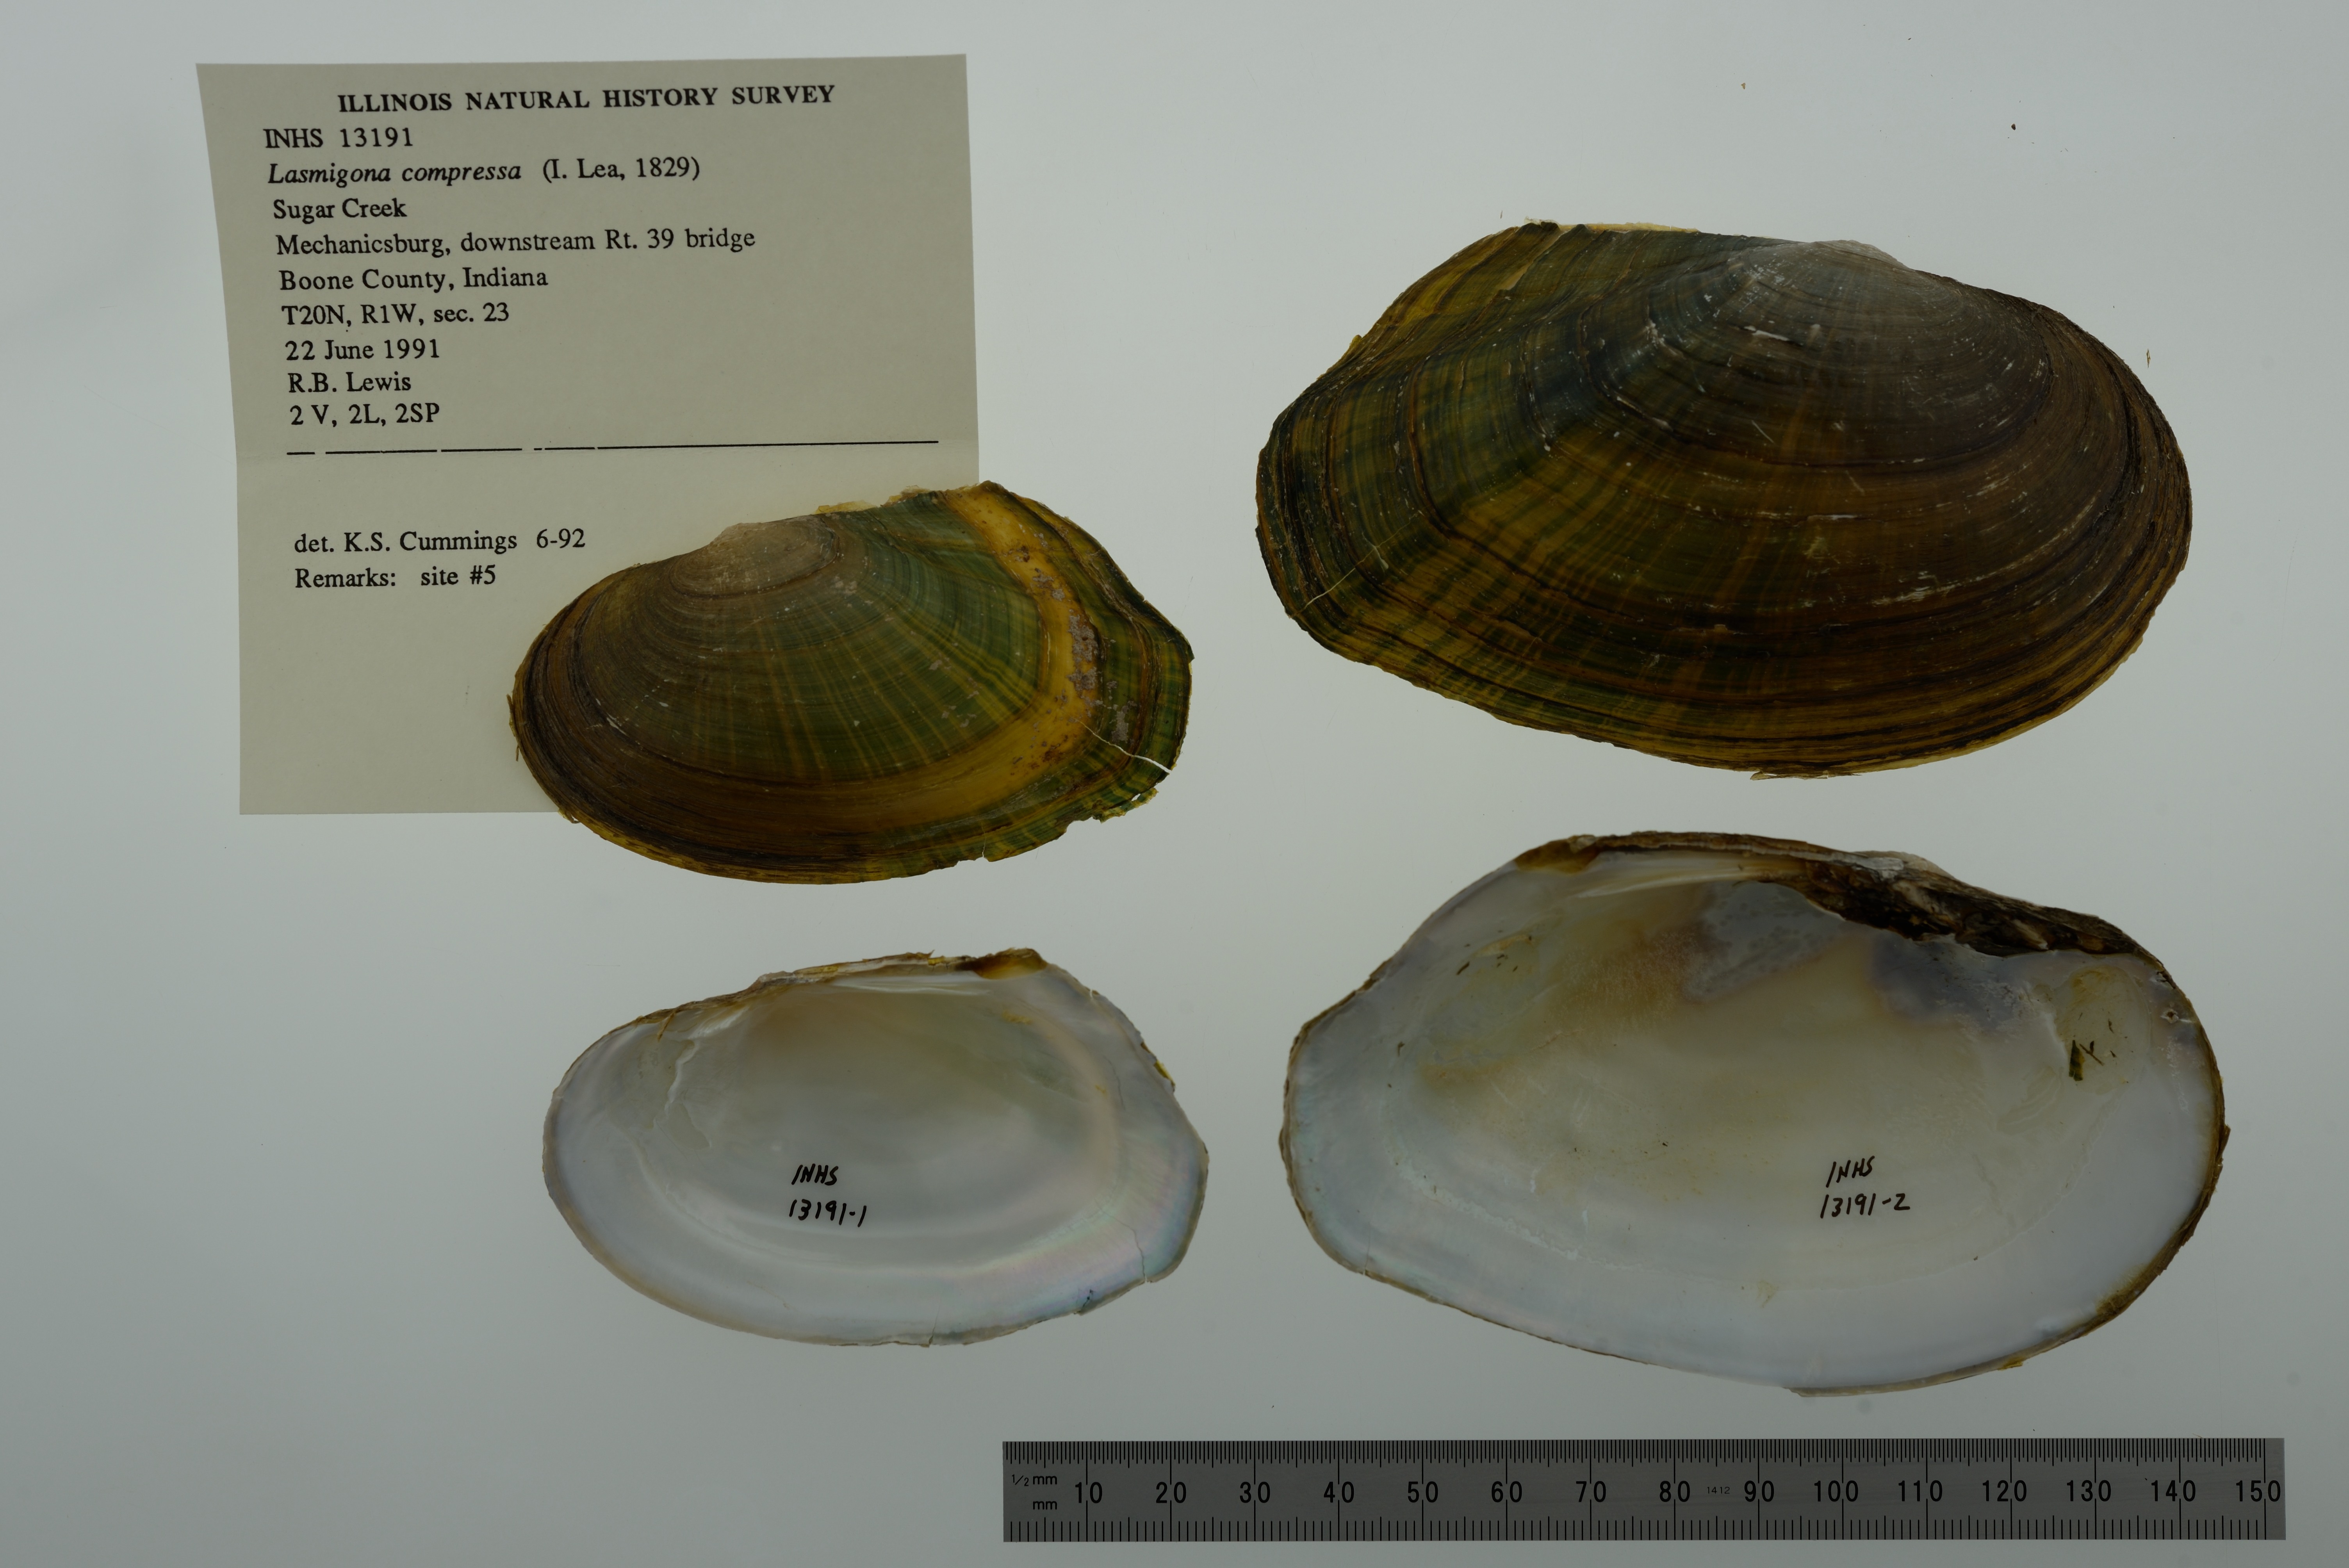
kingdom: Animalia
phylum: Mollusca
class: Bivalvia
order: Unionida
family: Unionidae
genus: Lasmigona
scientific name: Lasmigona compressa
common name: Creek heelsplitter
